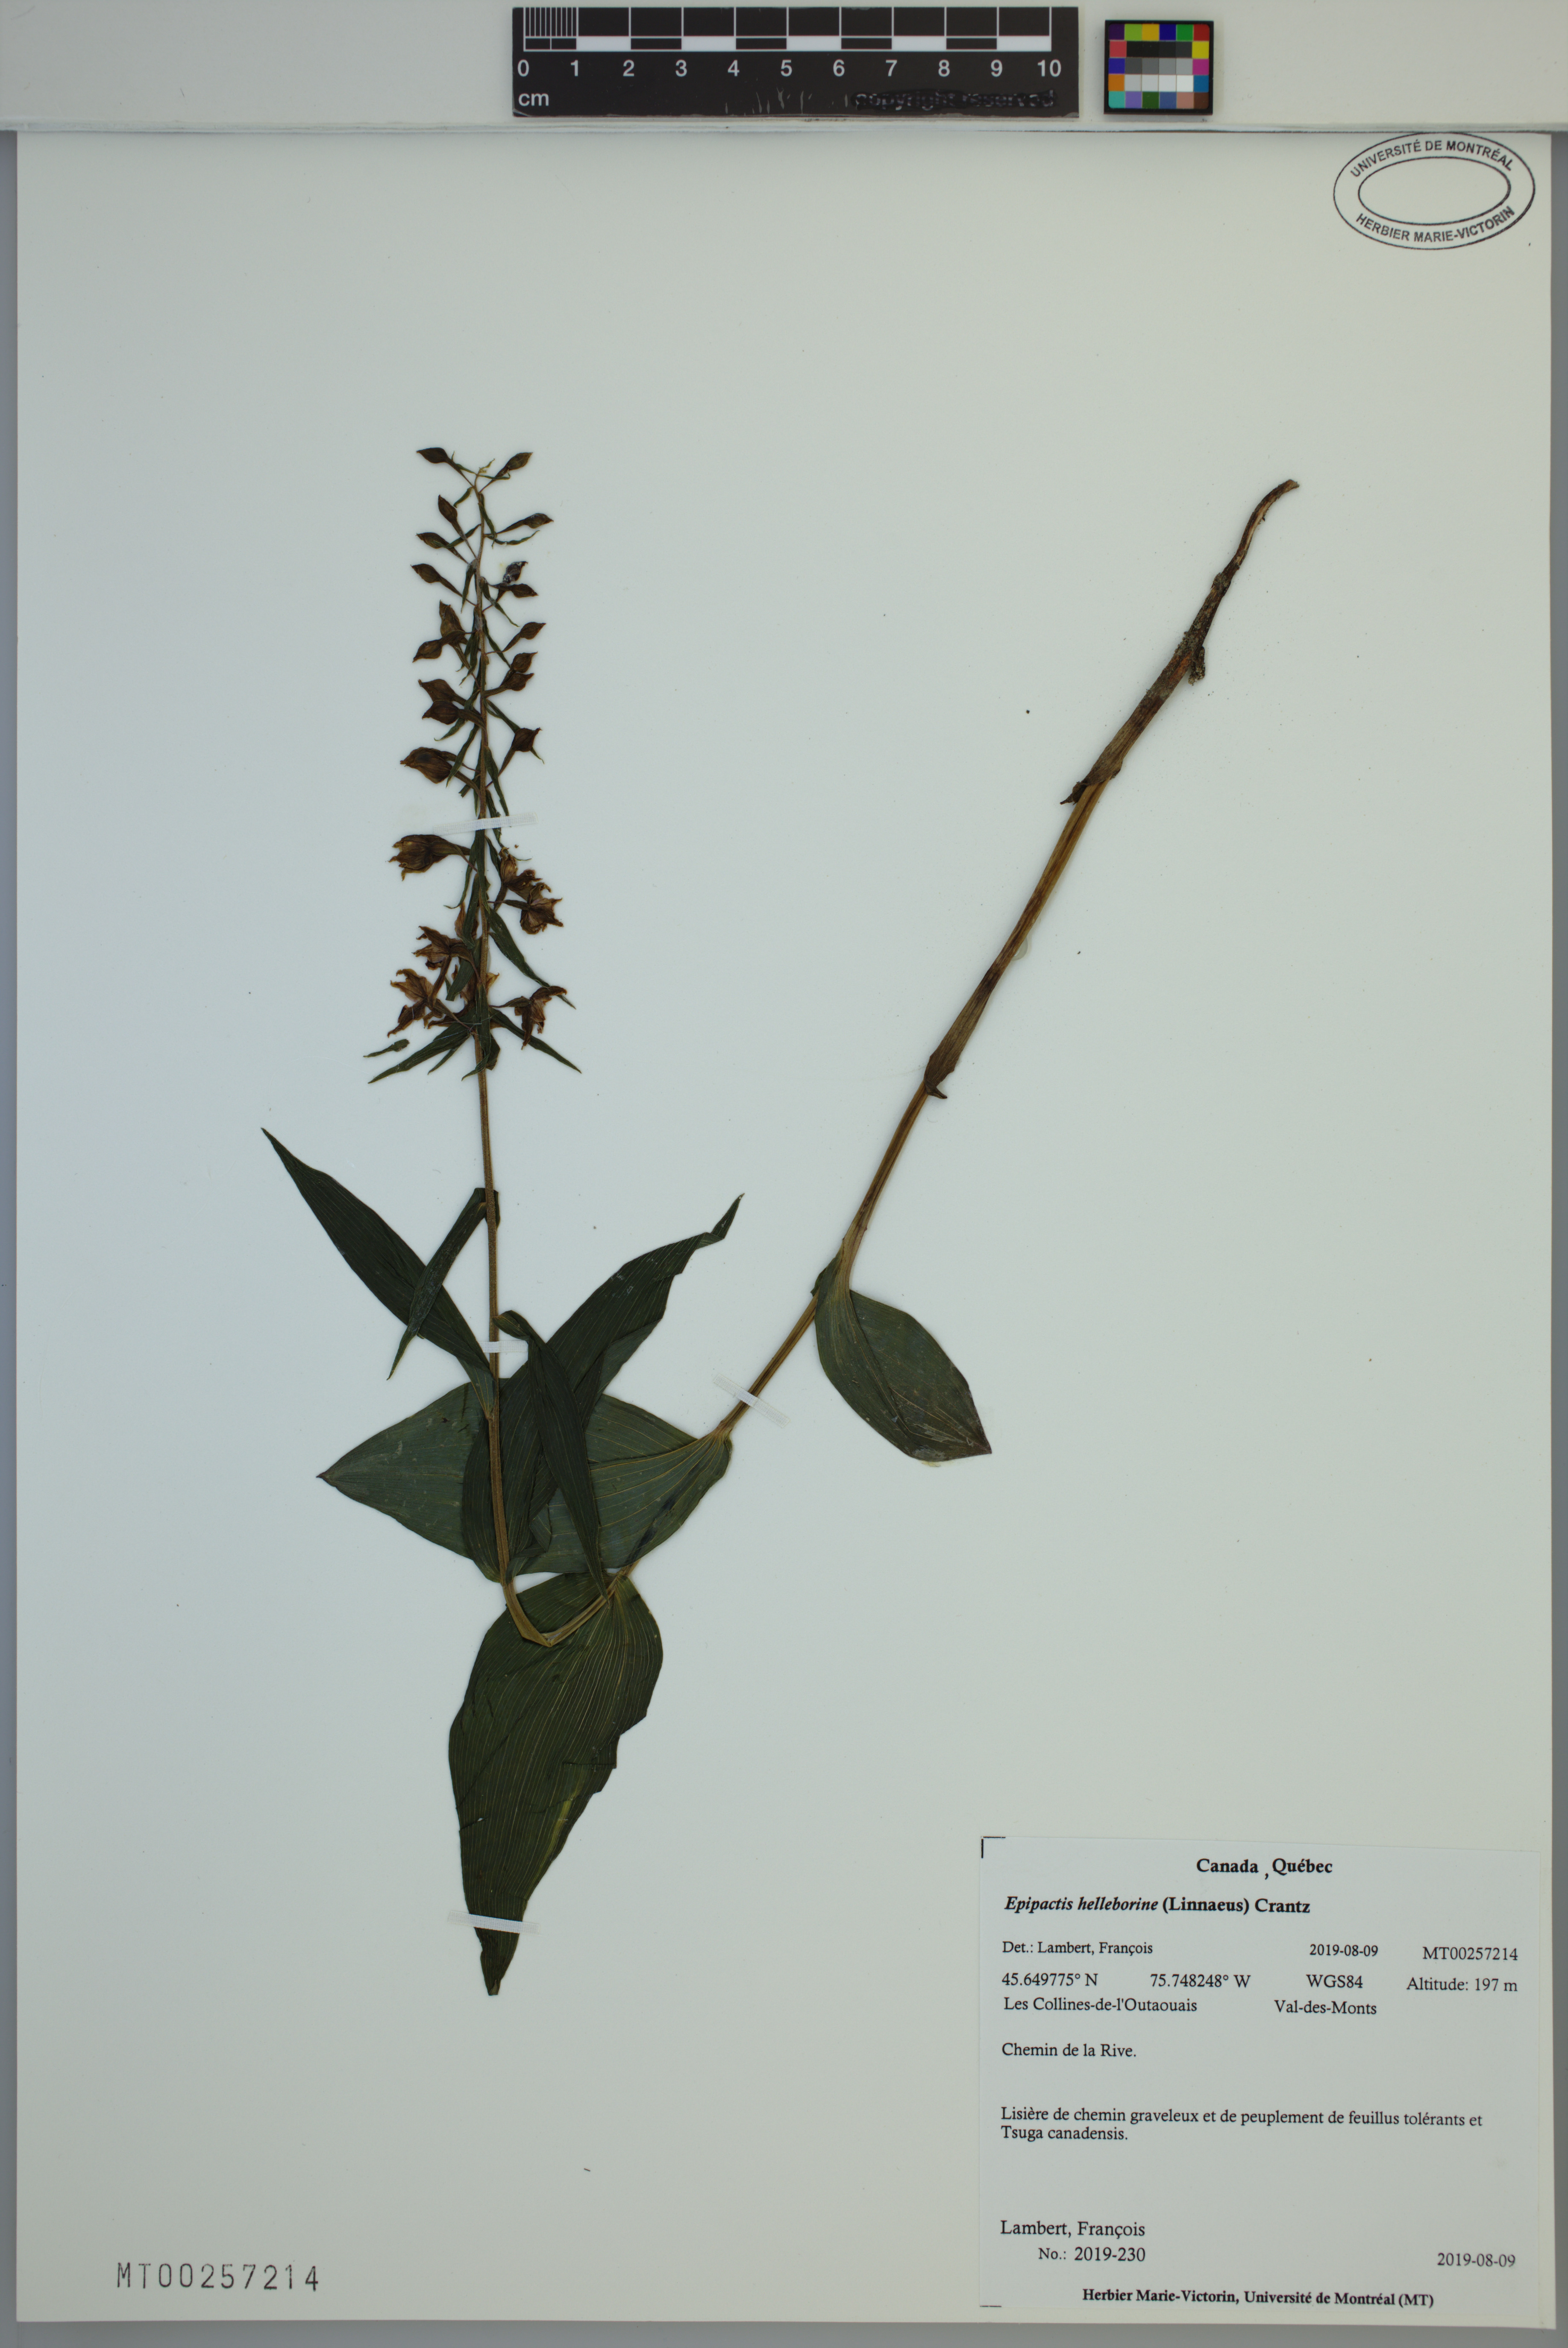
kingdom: Plantae
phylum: Tracheophyta
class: Liliopsida
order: Asparagales
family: Orchidaceae
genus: Epipactis
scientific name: Epipactis helleborine
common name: Broad-leaved helleborine
